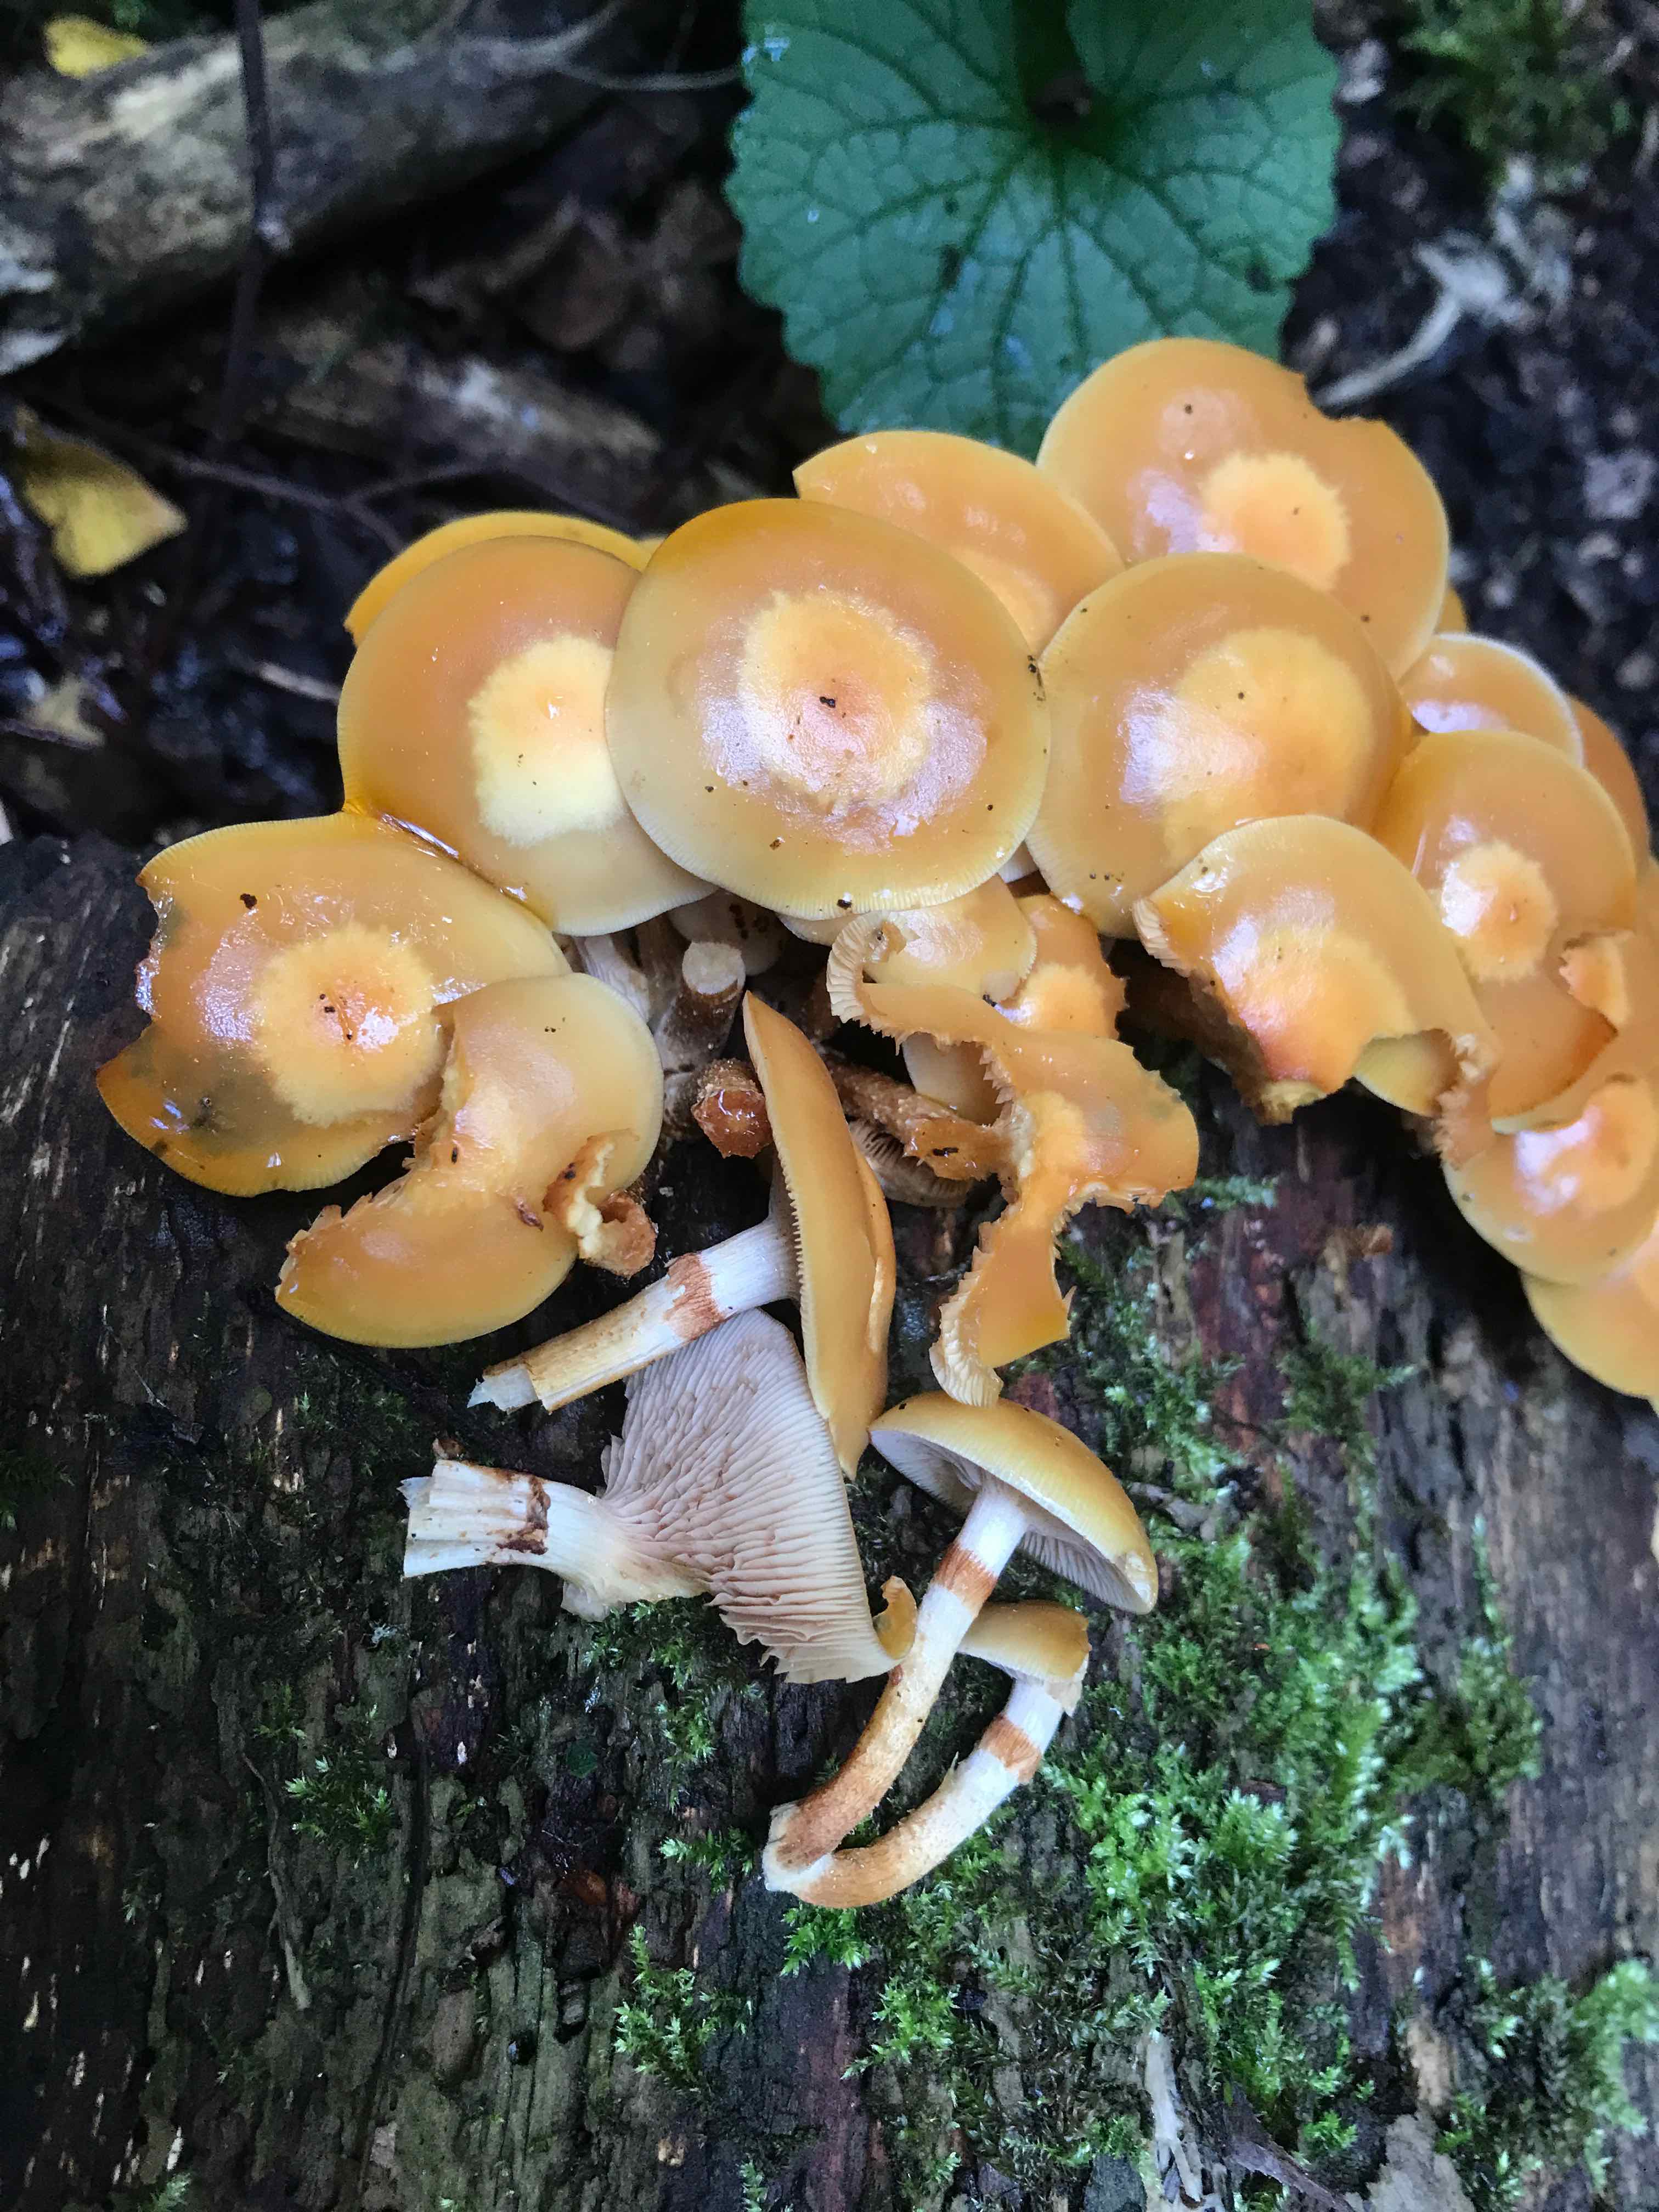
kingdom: Fungi
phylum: Basidiomycota
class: Agaricomycetes
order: Agaricales
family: Strophariaceae
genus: Kuehneromyces
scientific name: Kuehneromyces mutabilis
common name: foranderlig skælhat
